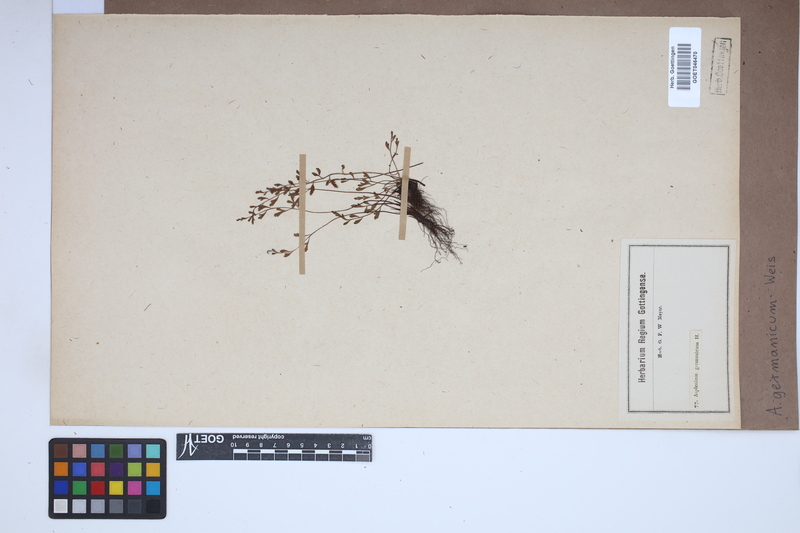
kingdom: Plantae
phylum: Tracheophyta
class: Polypodiopsida
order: Polypodiales
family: Aspleniaceae
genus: Asplenium
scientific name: Asplenium
